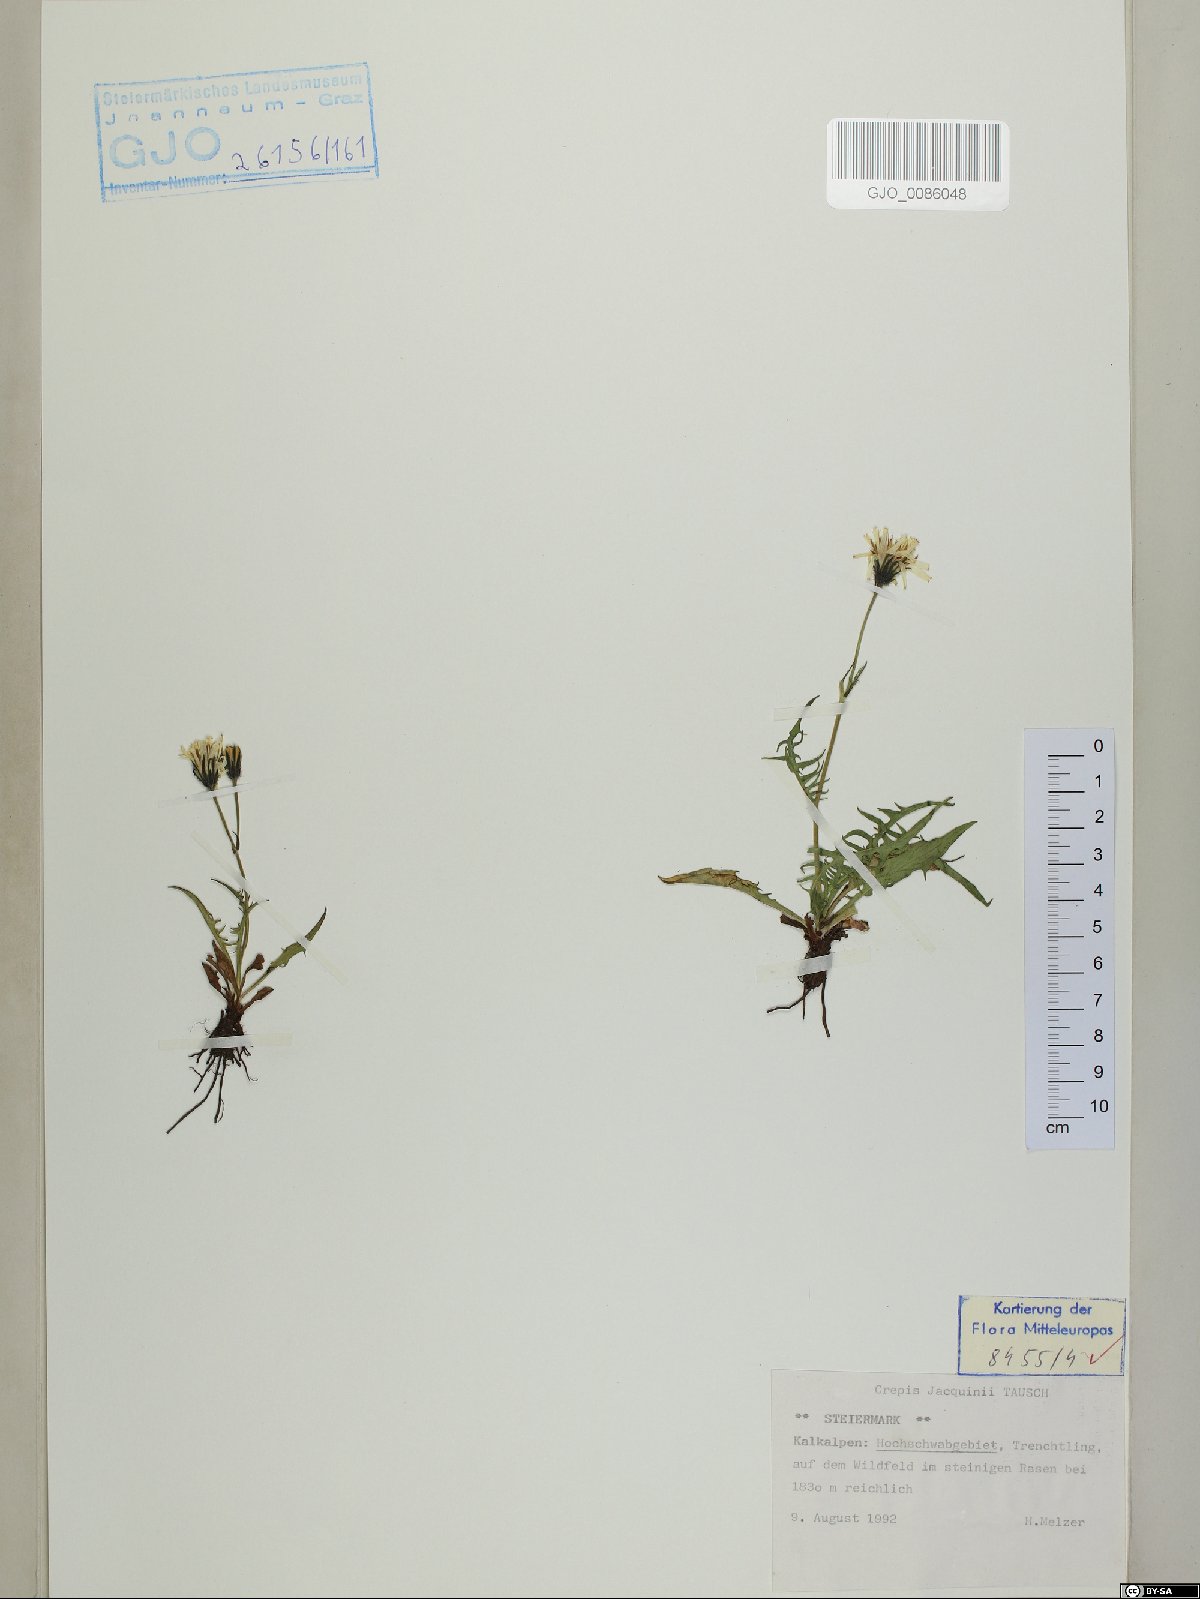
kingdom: Plantae
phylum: Tracheophyta
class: Magnoliopsida
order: Asterales
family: Asteraceae
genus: Crepis
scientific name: Crepis jacquinii
